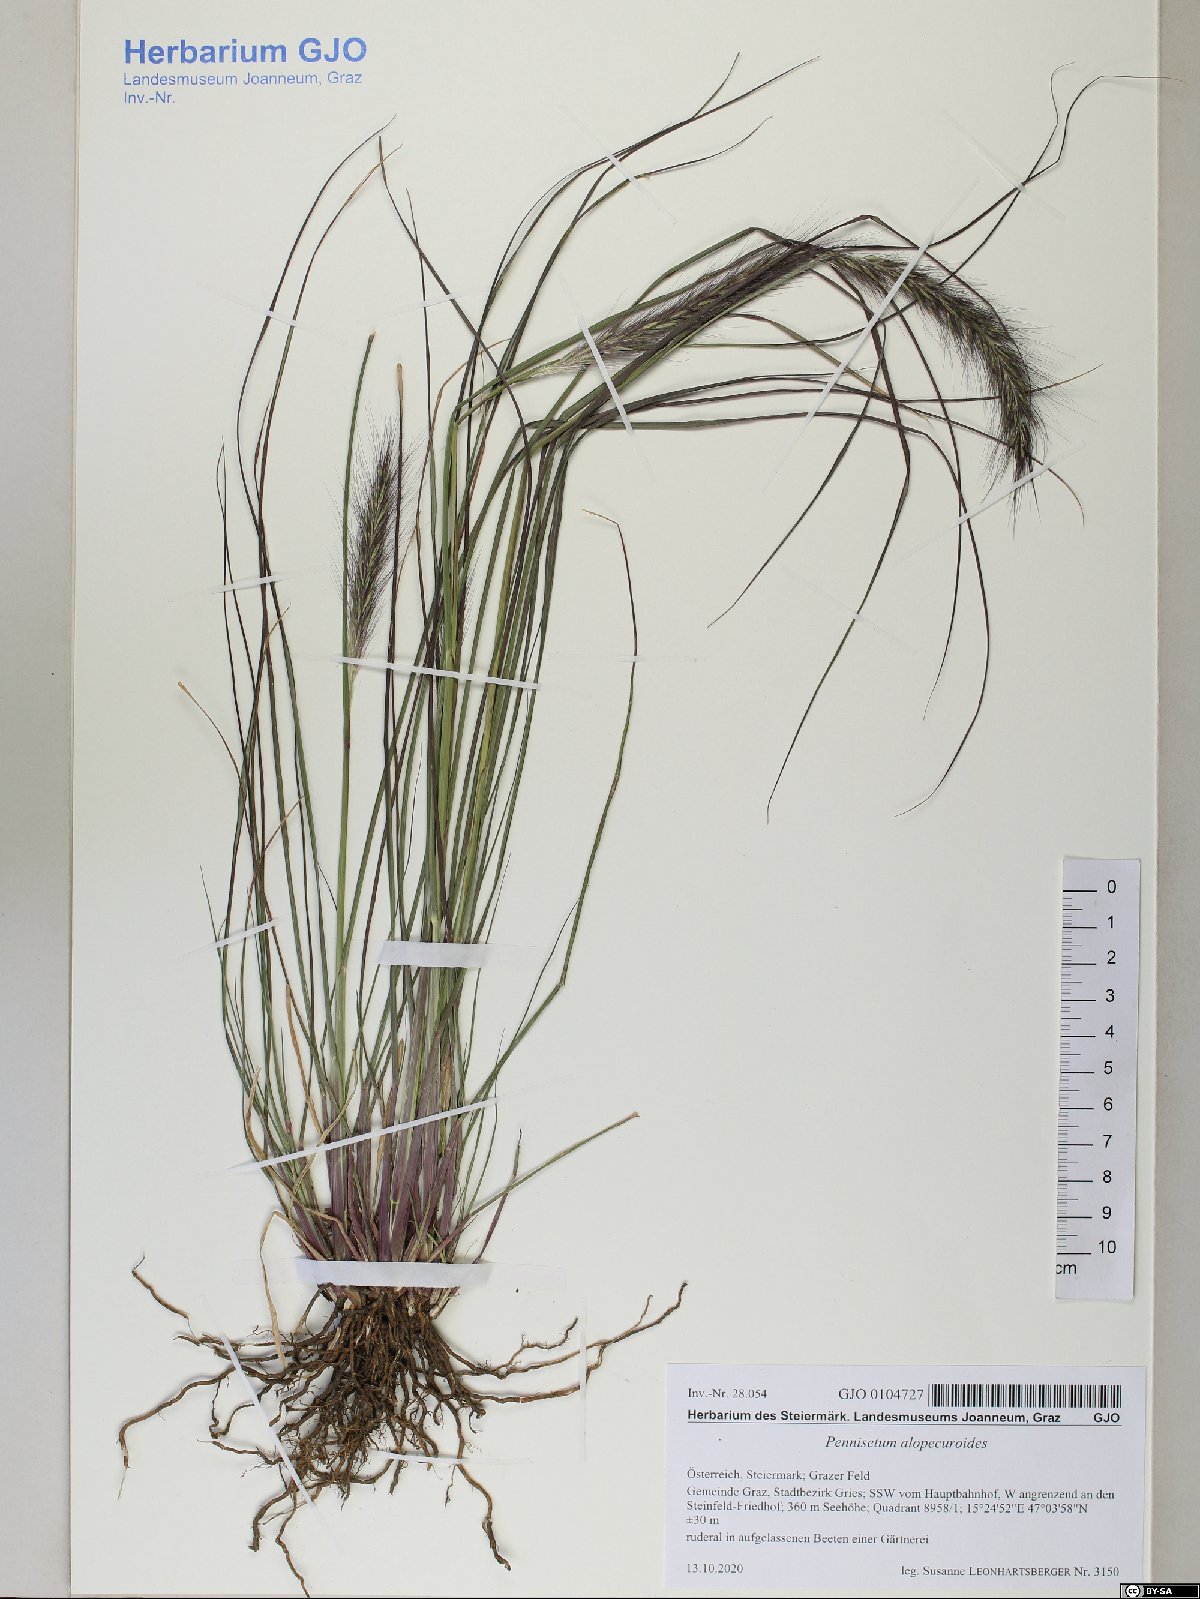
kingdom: Plantae
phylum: Tracheophyta
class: Liliopsida
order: Poales
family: Poaceae
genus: Cenchrus
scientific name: Cenchrus alopecuroides
